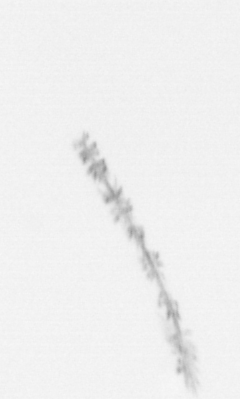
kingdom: Chromista
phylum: Ochrophyta
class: Bacillariophyceae
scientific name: Bacillariophyceae
